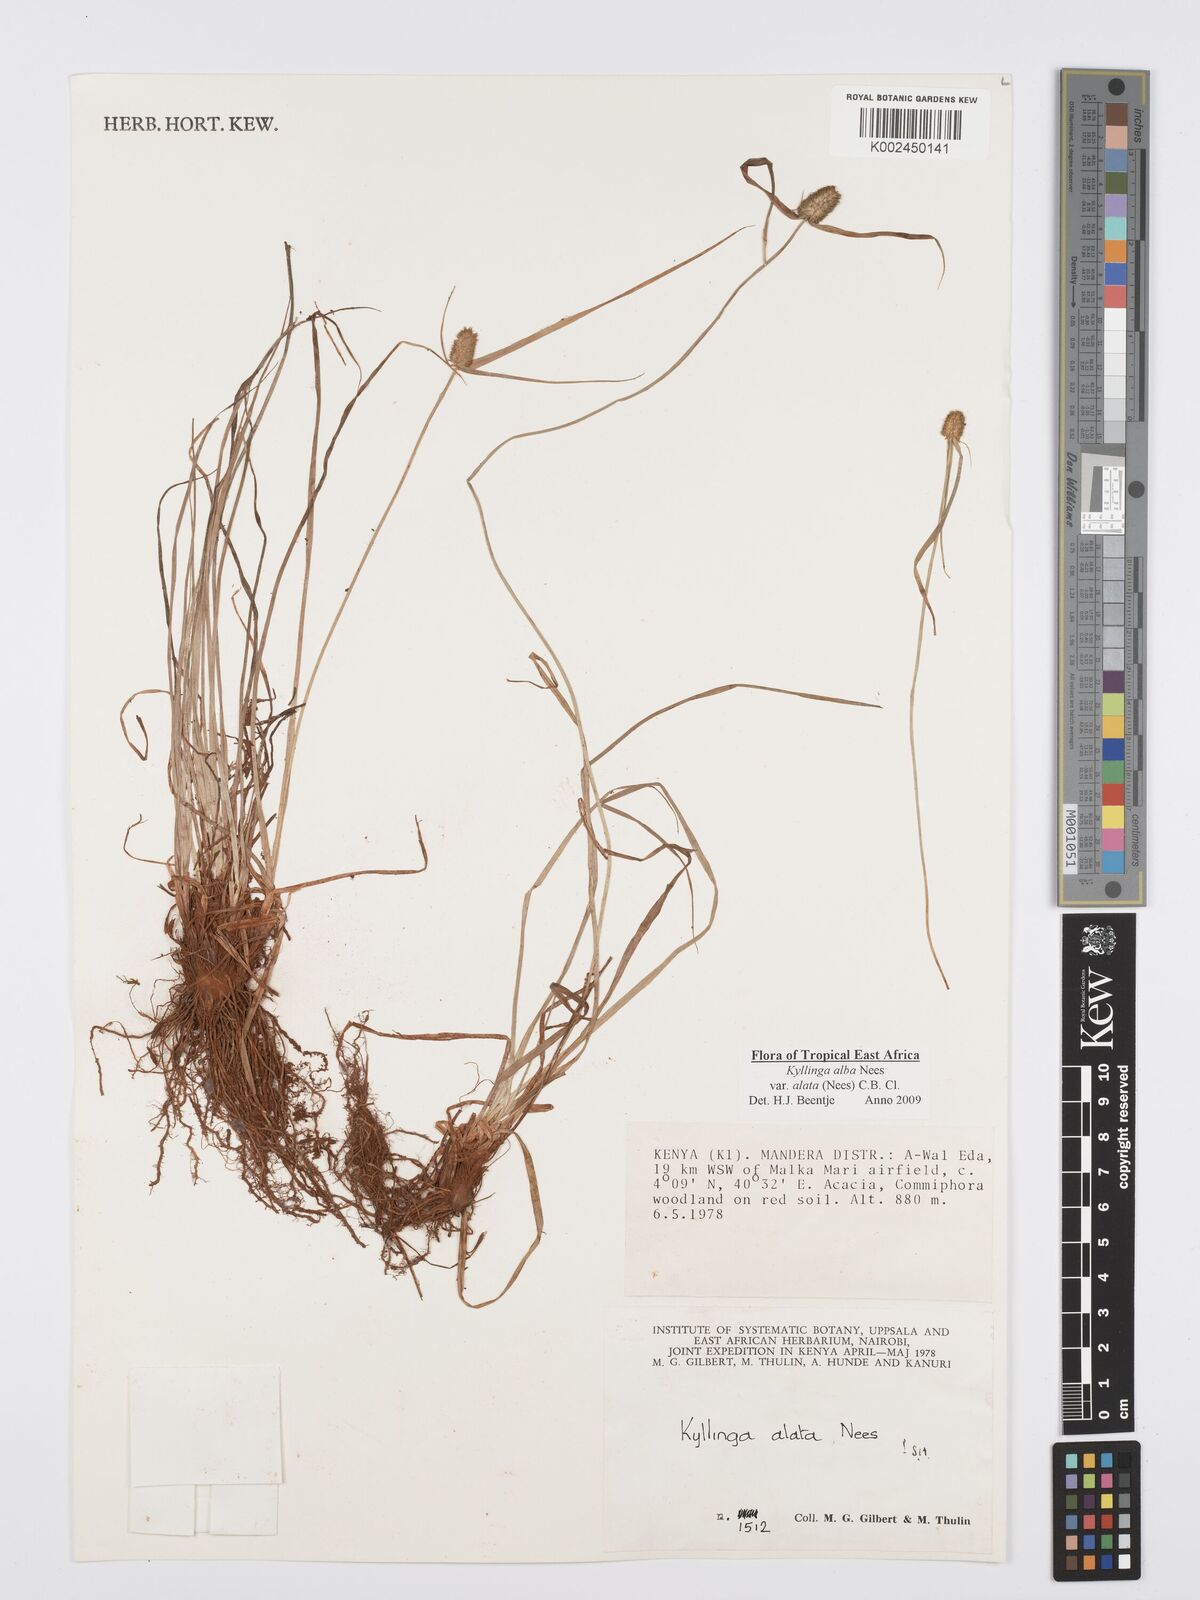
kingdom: Plantae
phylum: Tracheophyta
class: Liliopsida
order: Poales
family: Cyperaceae
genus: Cyperus
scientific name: Cyperus alatus
